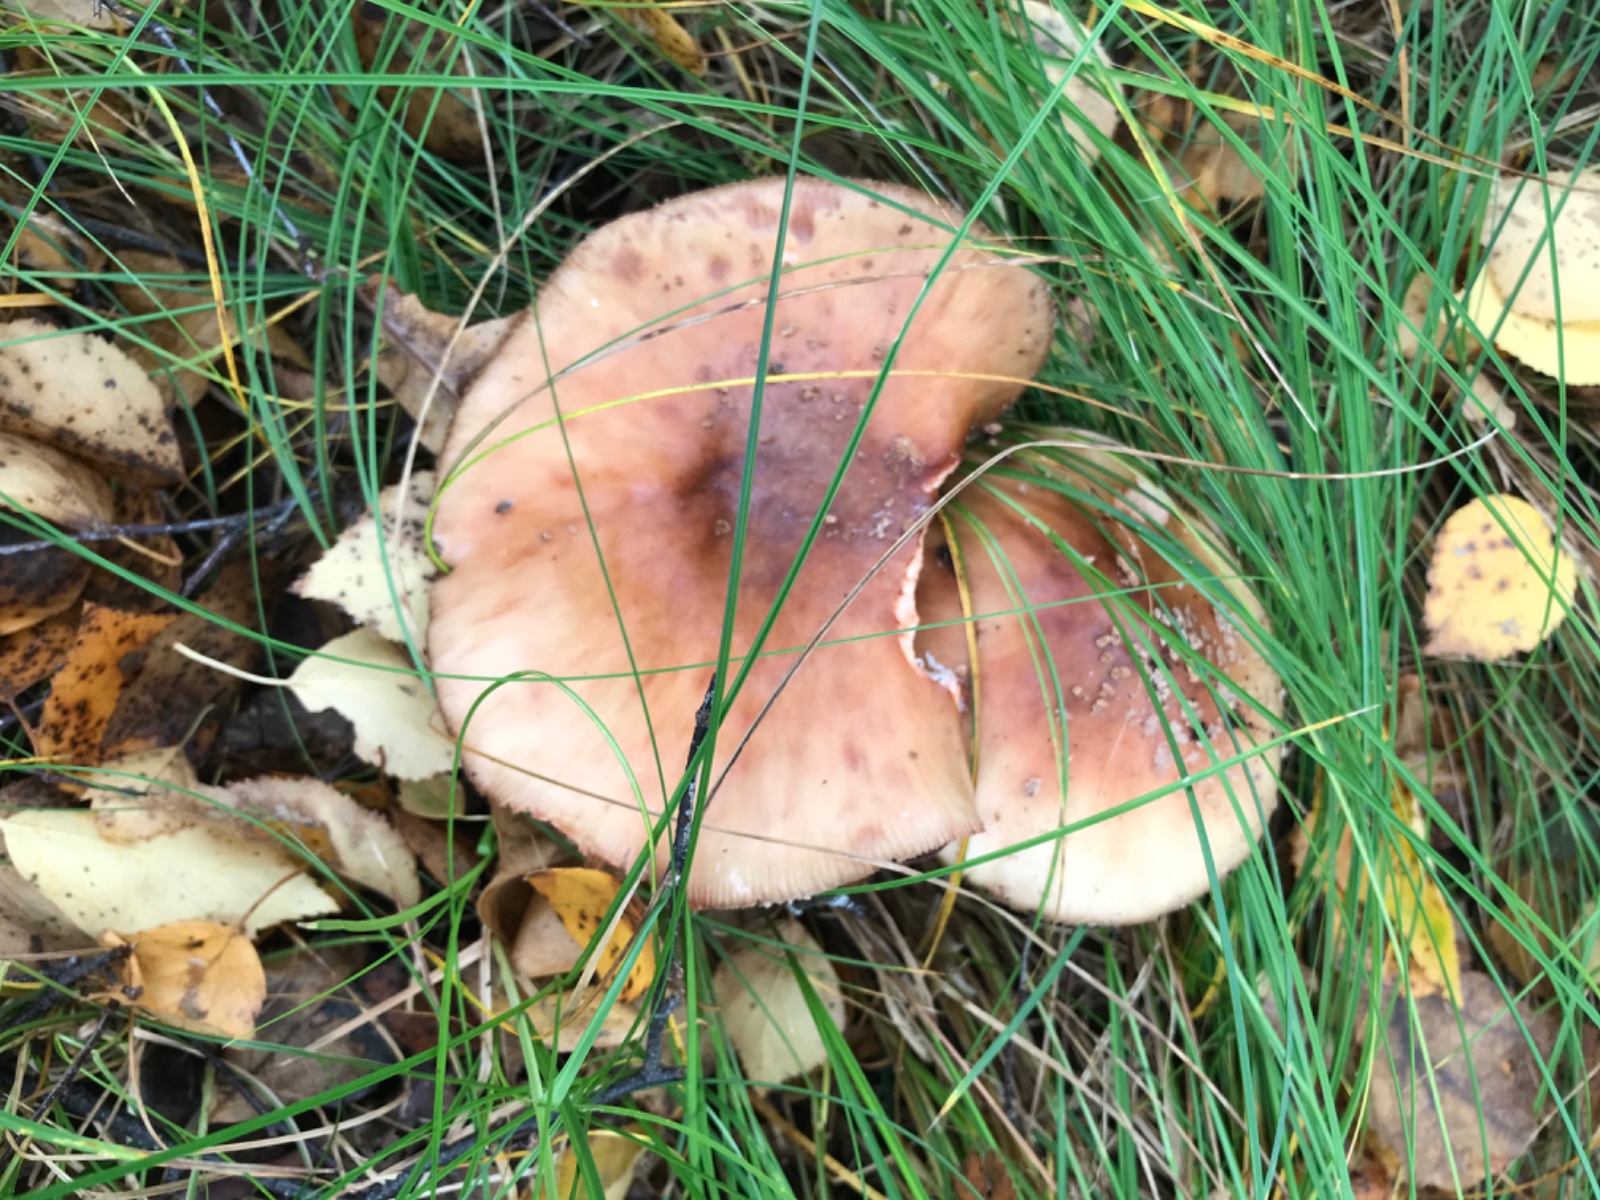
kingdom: Fungi
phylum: Basidiomycota
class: Agaricomycetes
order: Agaricales
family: Amanitaceae
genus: Amanita
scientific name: Amanita rubescens
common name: rødmende fluesvamp
